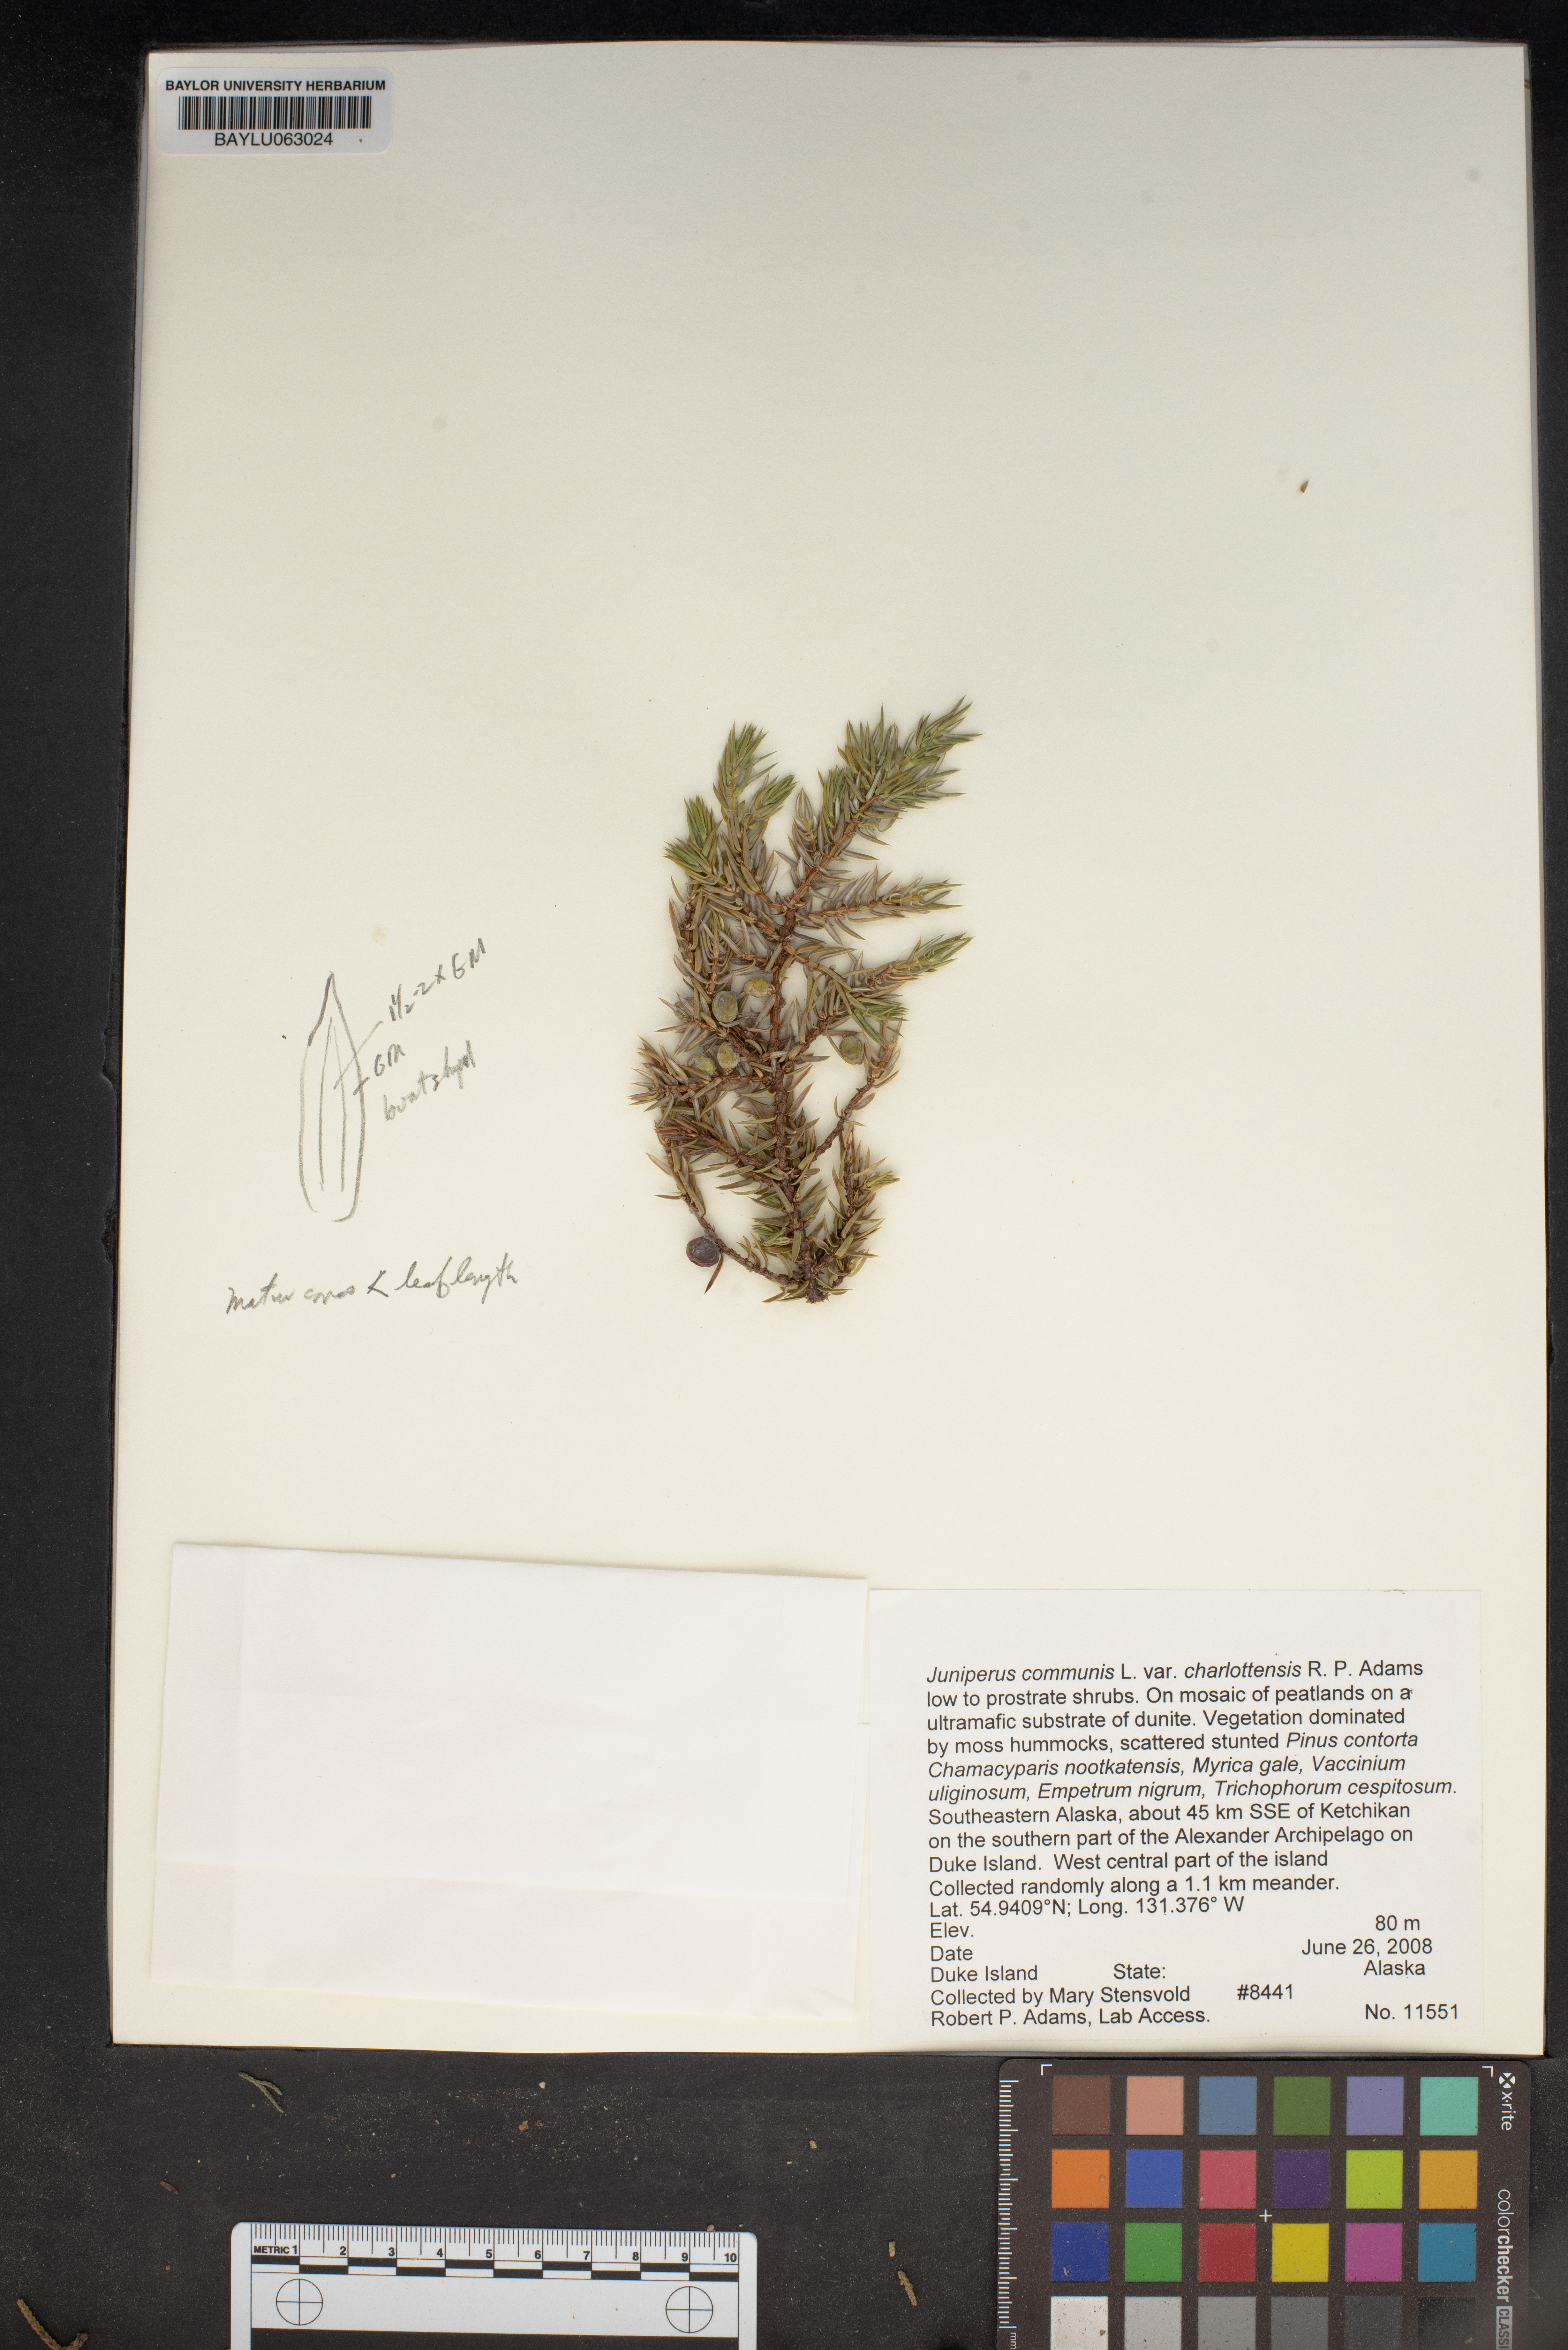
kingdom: Plantae
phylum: Tracheophyta
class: Pinopsida
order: Pinales
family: Cupressaceae
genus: Juniperus
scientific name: Juniperus communis
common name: Common juniper
